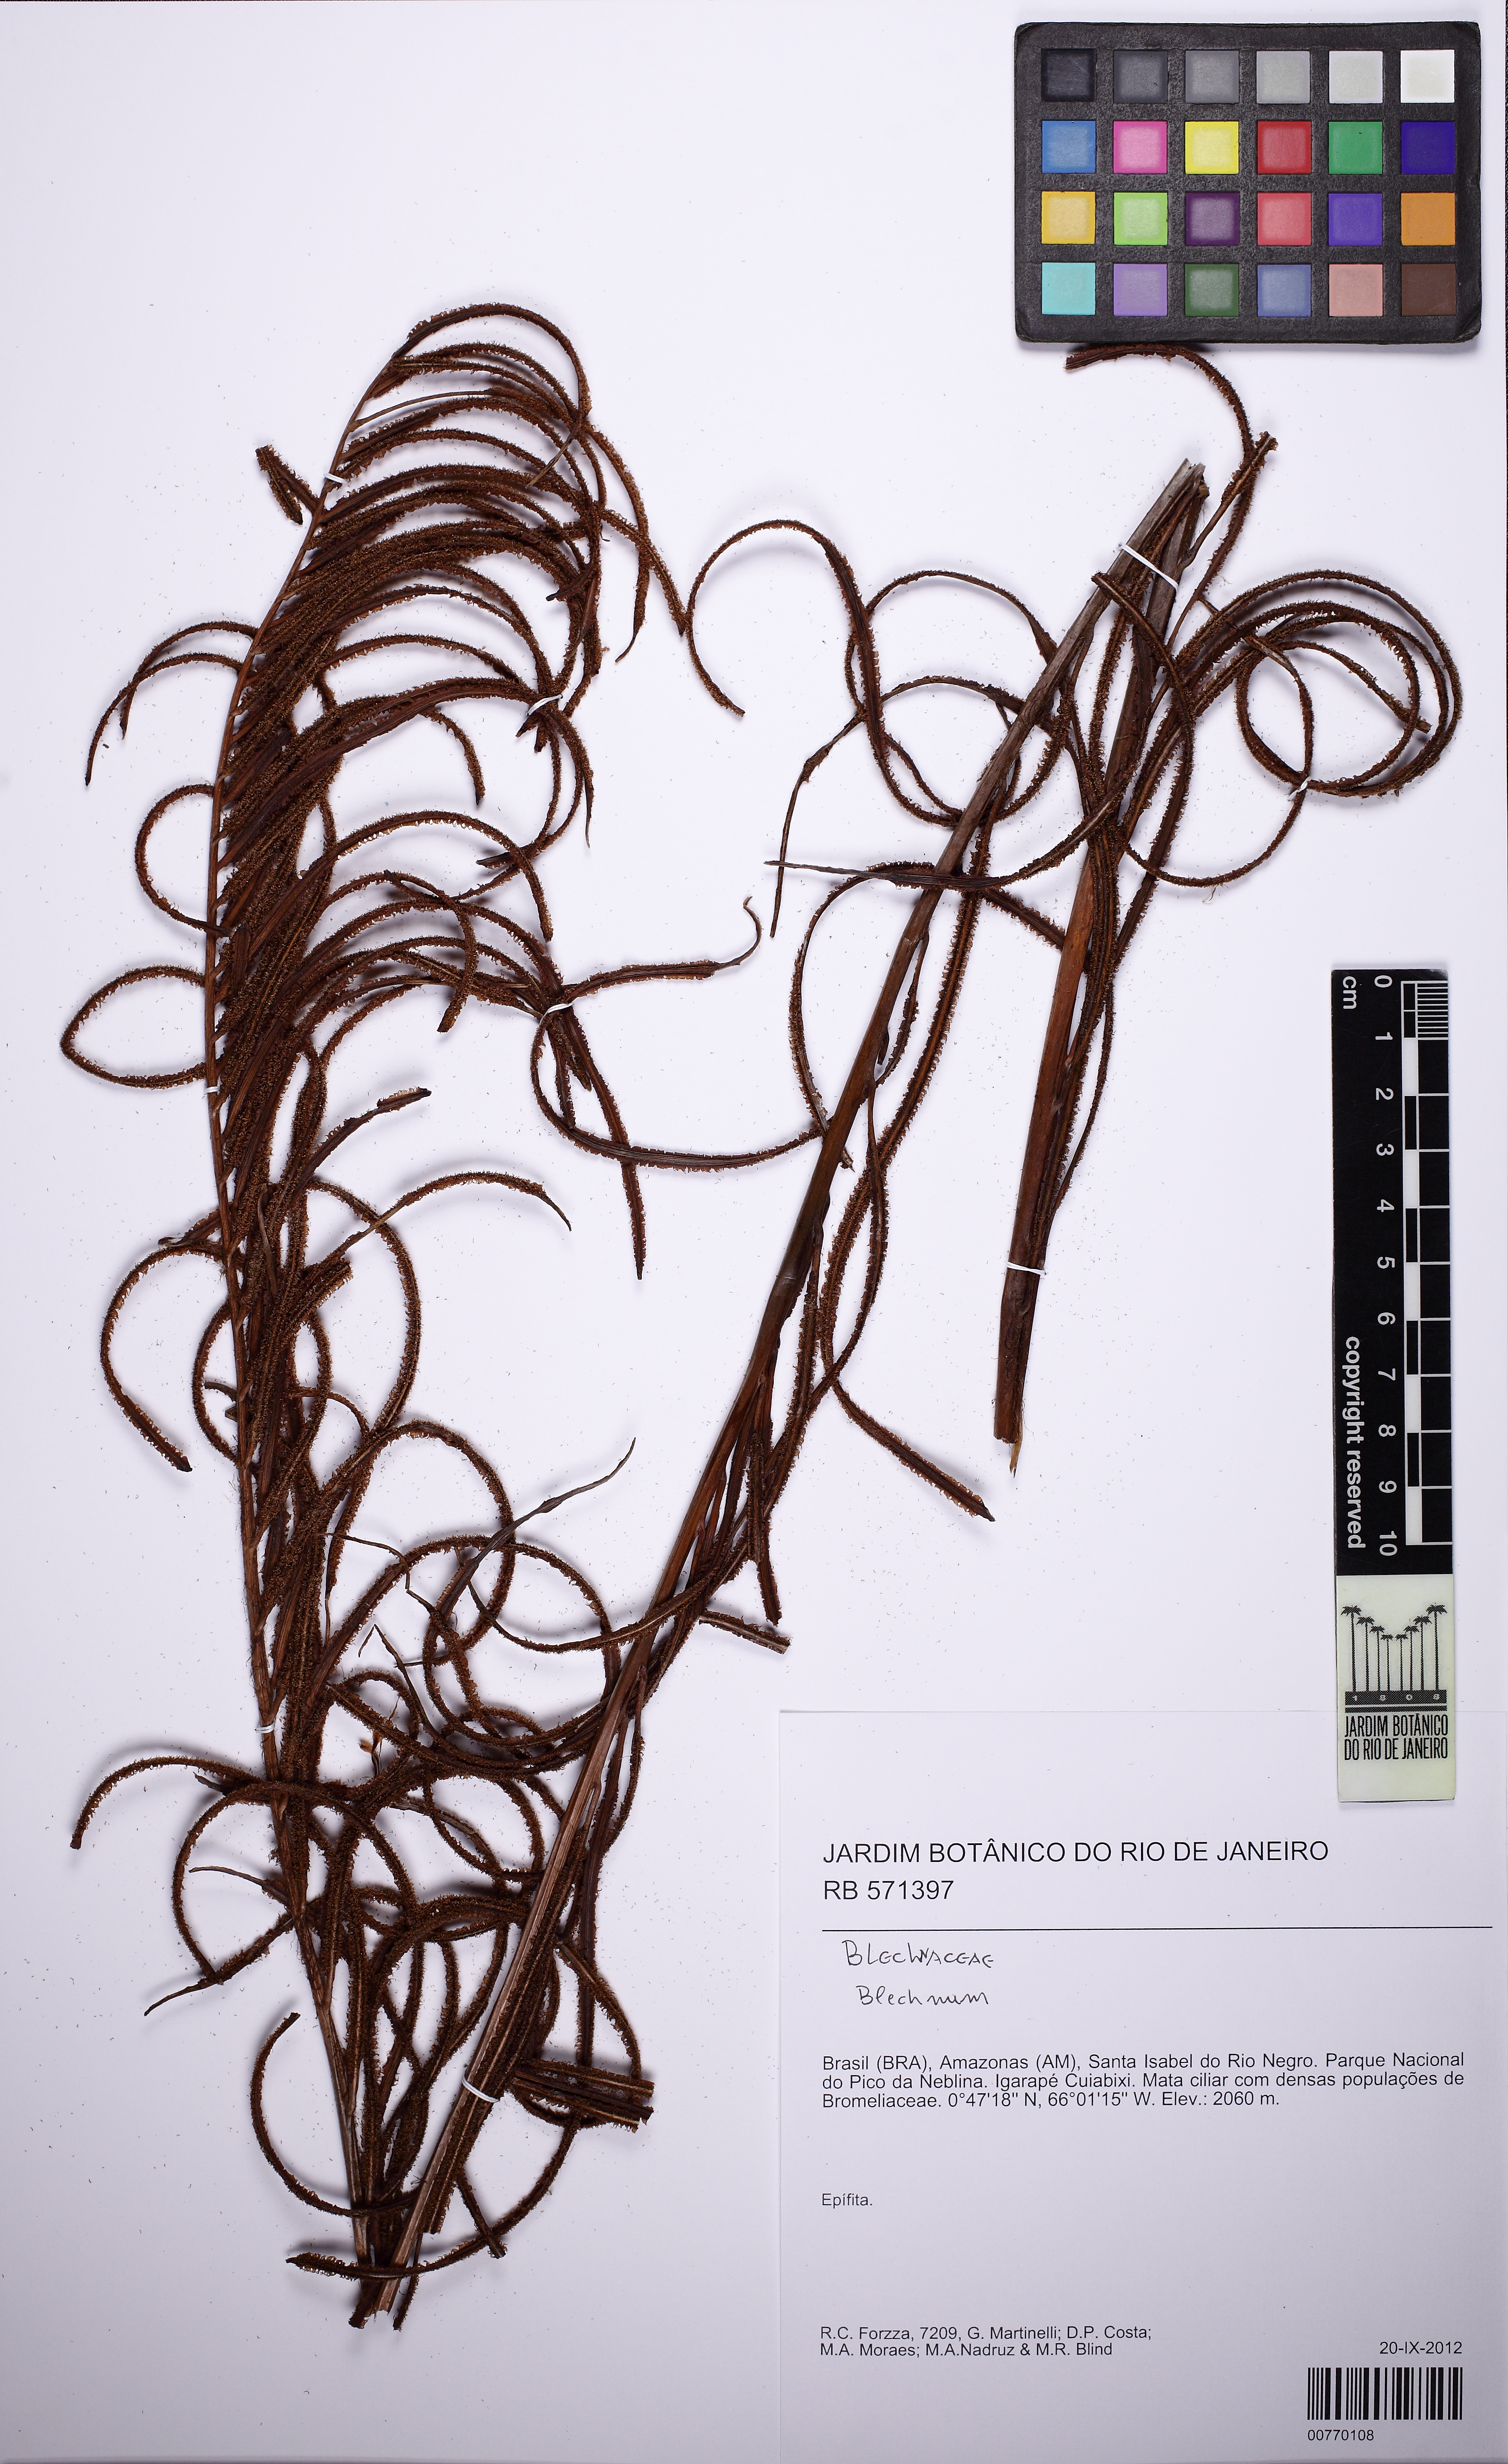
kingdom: Plantae
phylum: Tracheophyta
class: Polypodiopsida
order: Polypodiales
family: Blechnaceae
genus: Lomariocycas
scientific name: Lomariocycas schomburgkii
